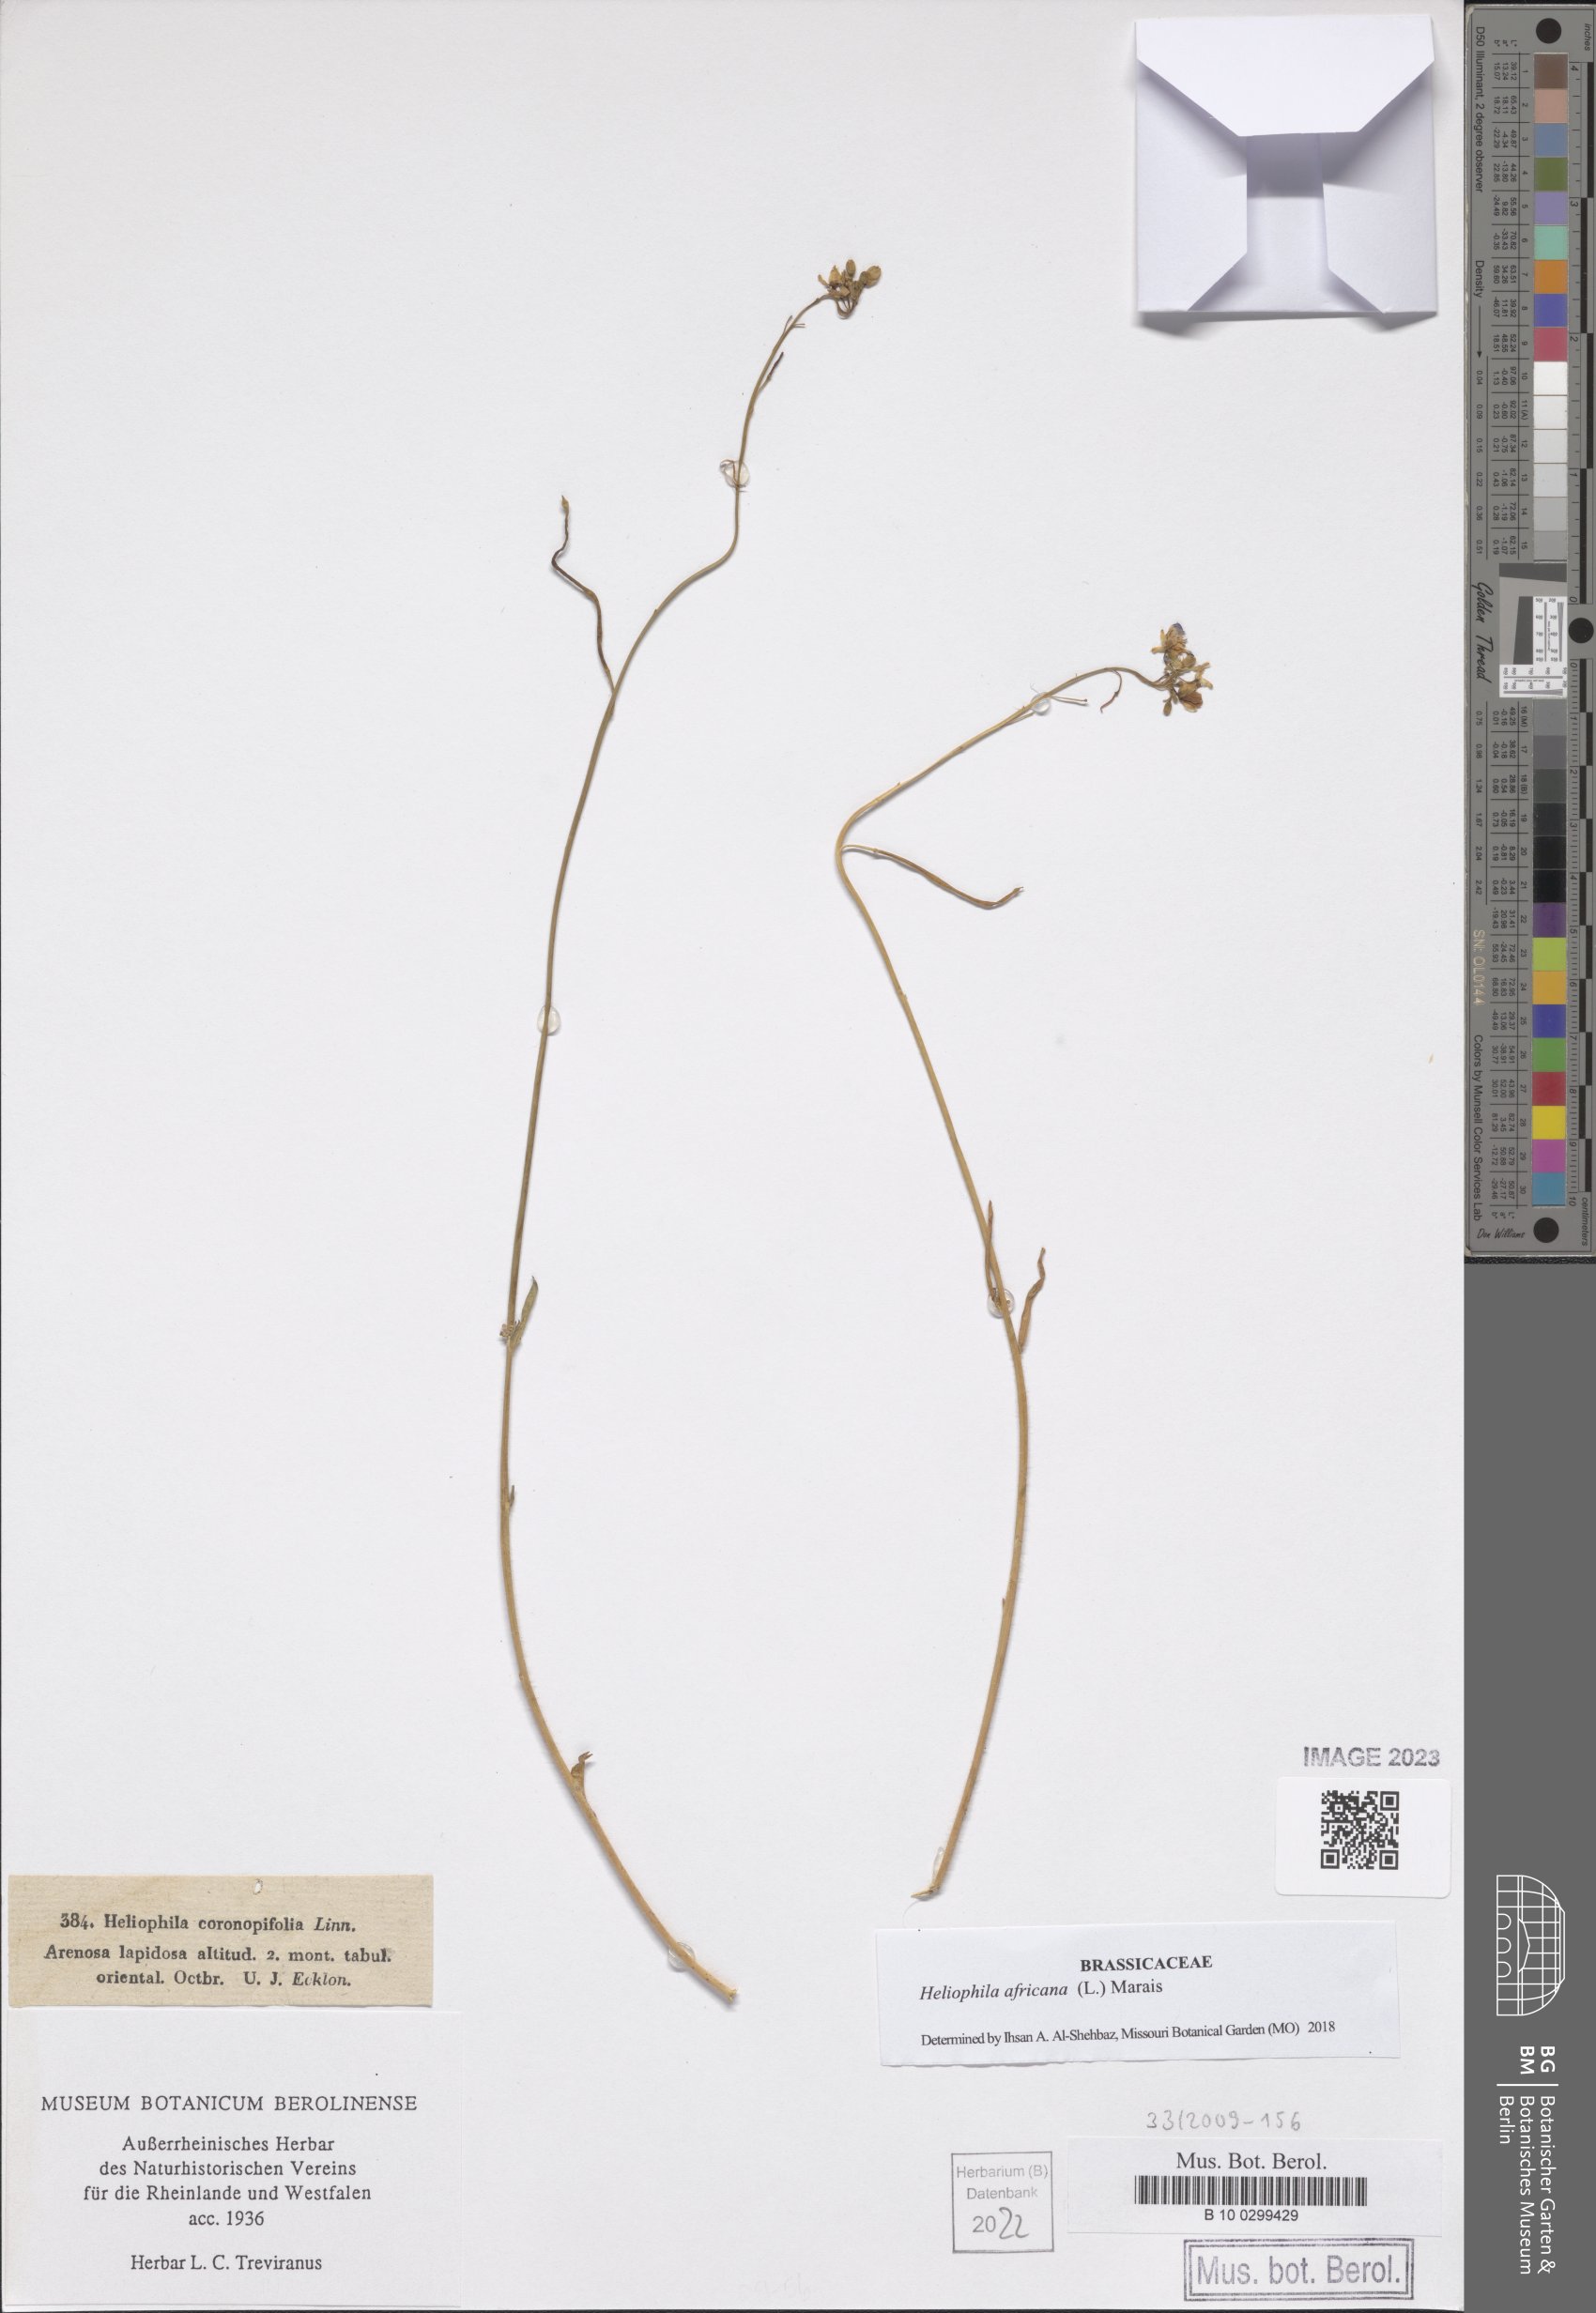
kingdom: Plantae
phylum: Tracheophyta
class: Magnoliopsida
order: Brassicales
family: Brassicaceae
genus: Heliophila
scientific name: Heliophila africana
